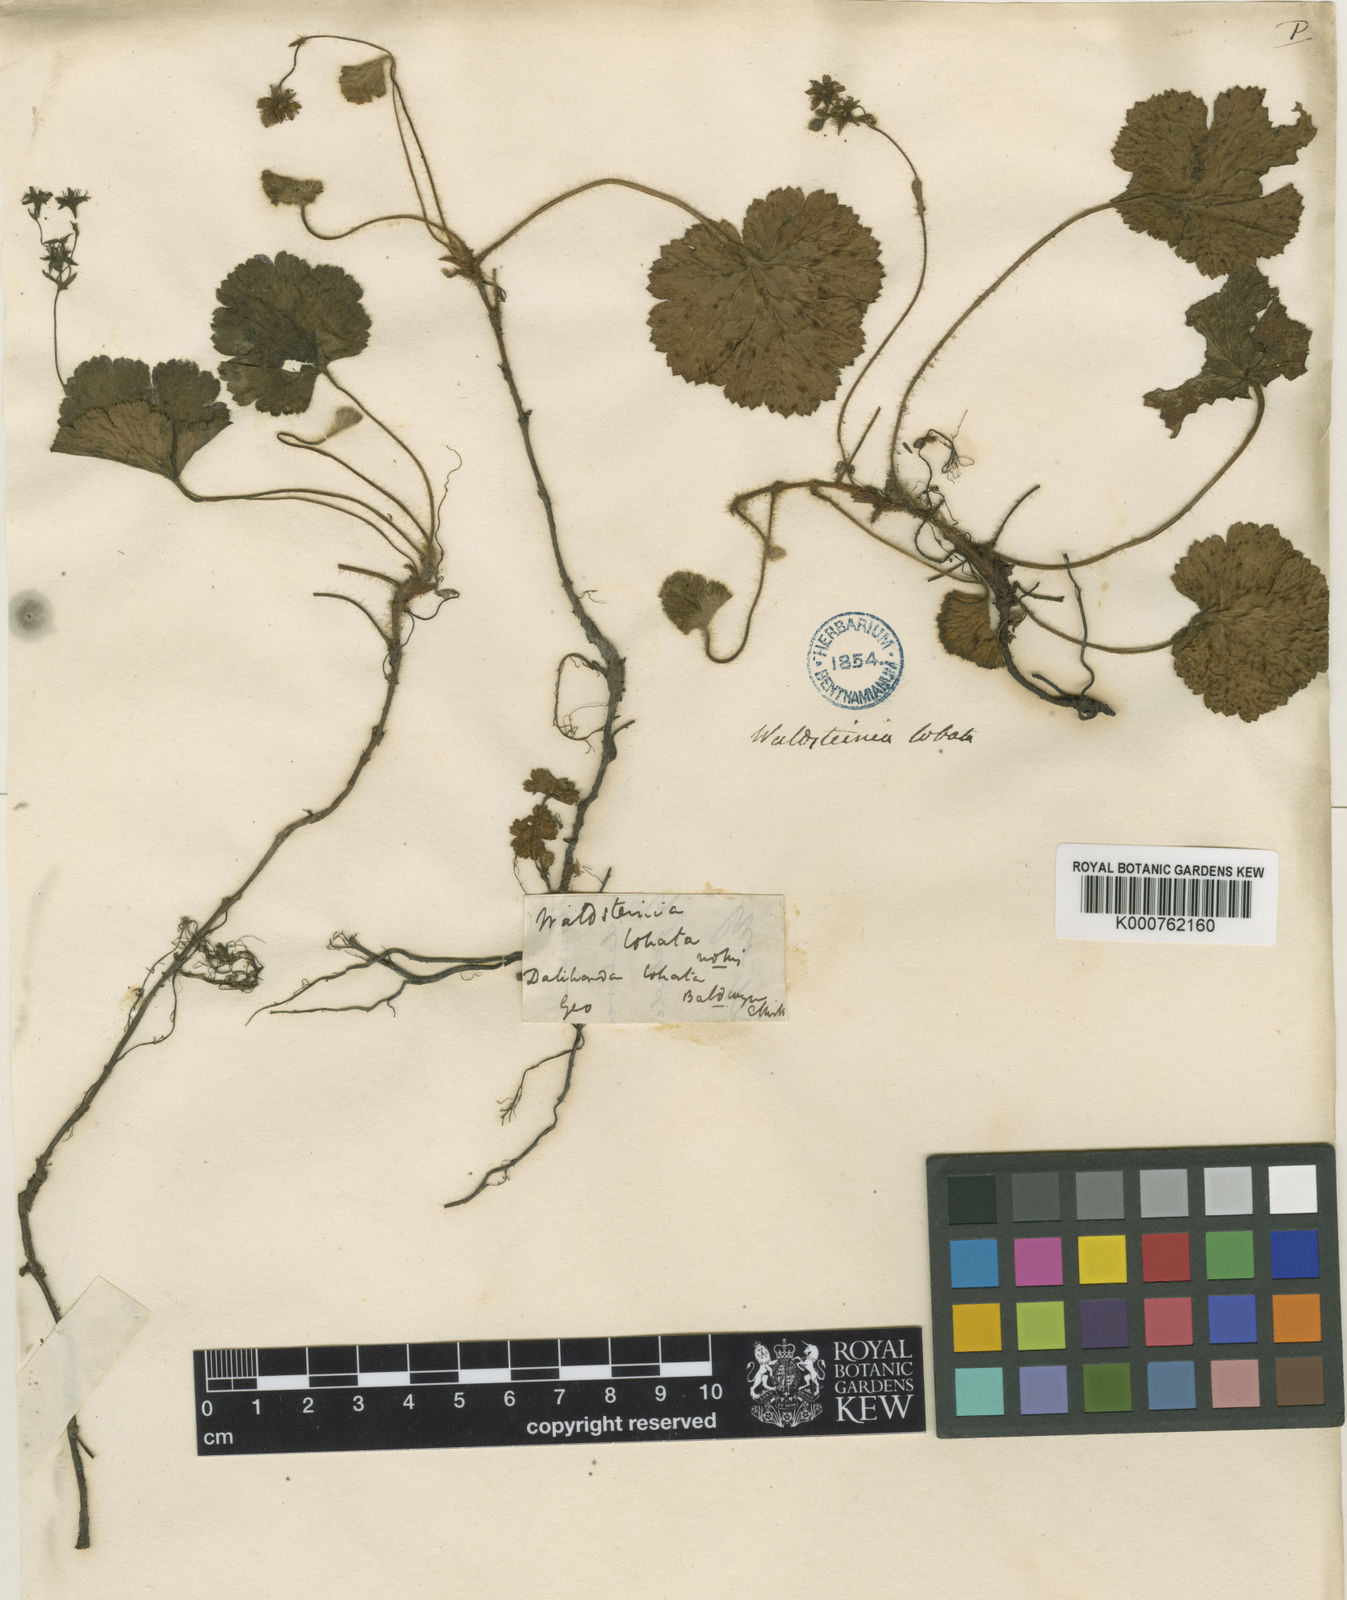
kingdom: Plantae
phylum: Tracheophyta
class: Magnoliopsida
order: Rosales
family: Rosaceae
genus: Geum
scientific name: Geum lobatum
